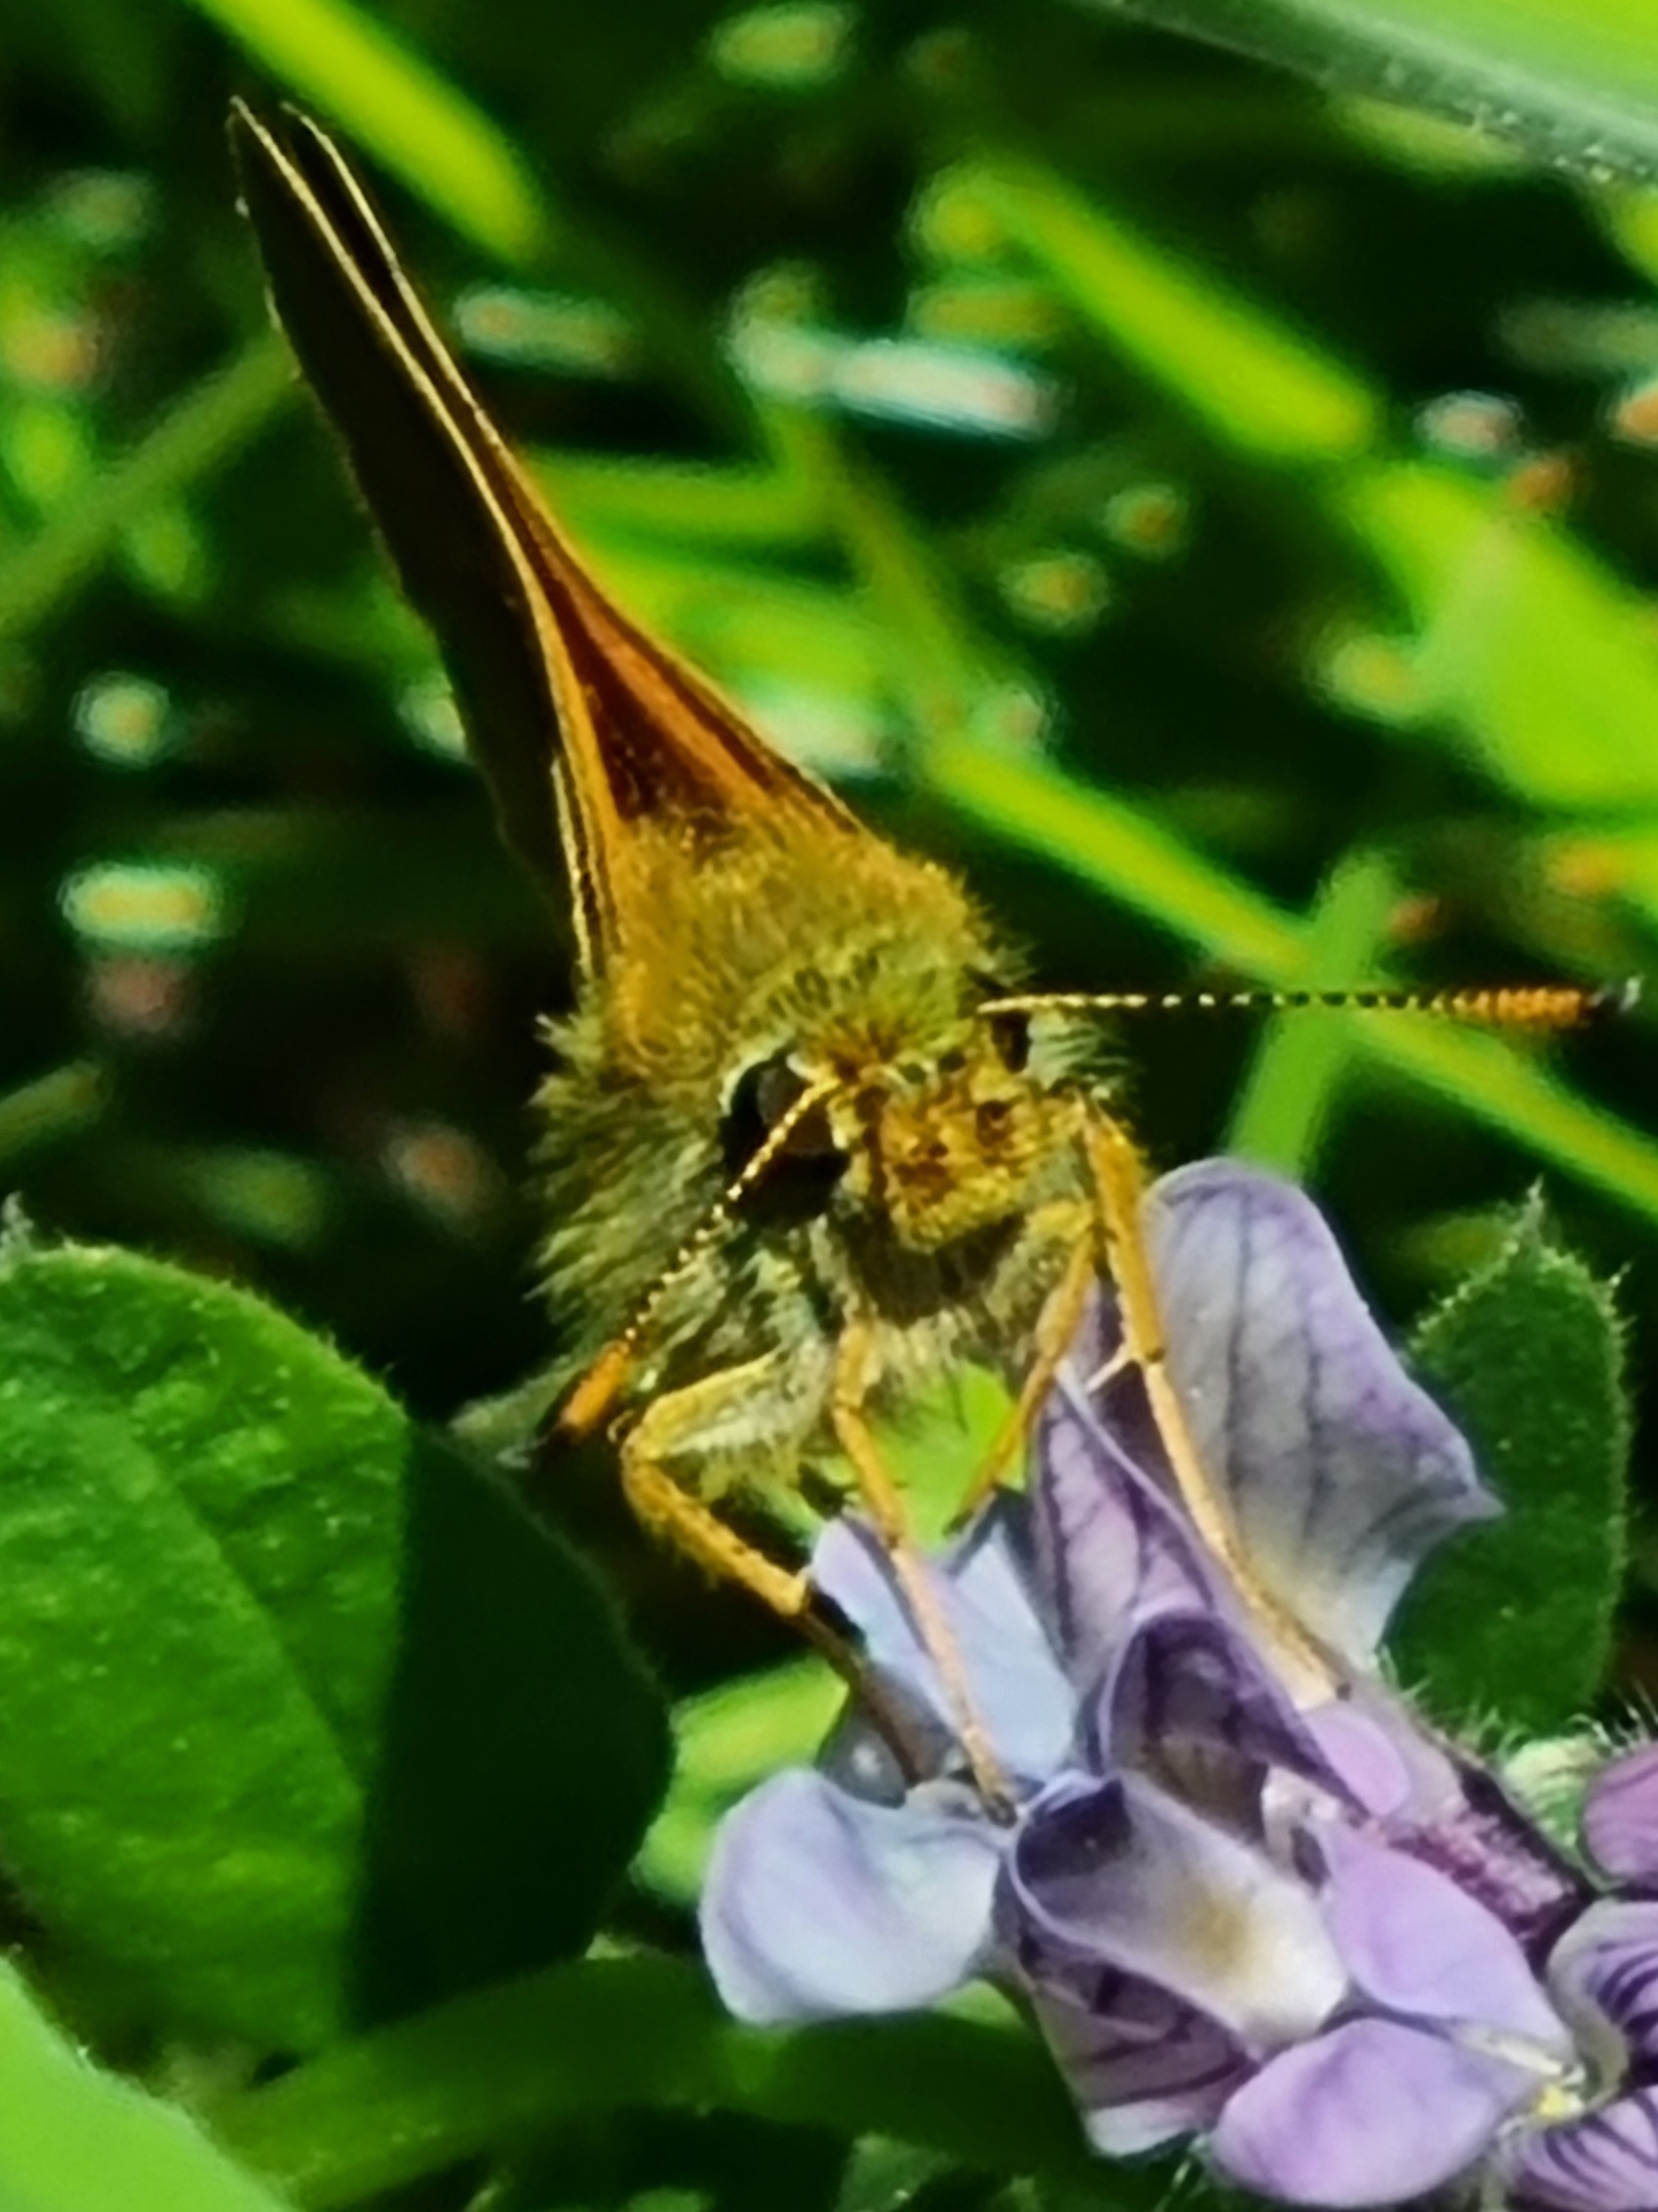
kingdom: Animalia
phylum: Arthropoda
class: Insecta
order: Lepidoptera
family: Hesperiidae
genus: Ochlodes
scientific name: Ochlodes venata
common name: Stor bredpande
